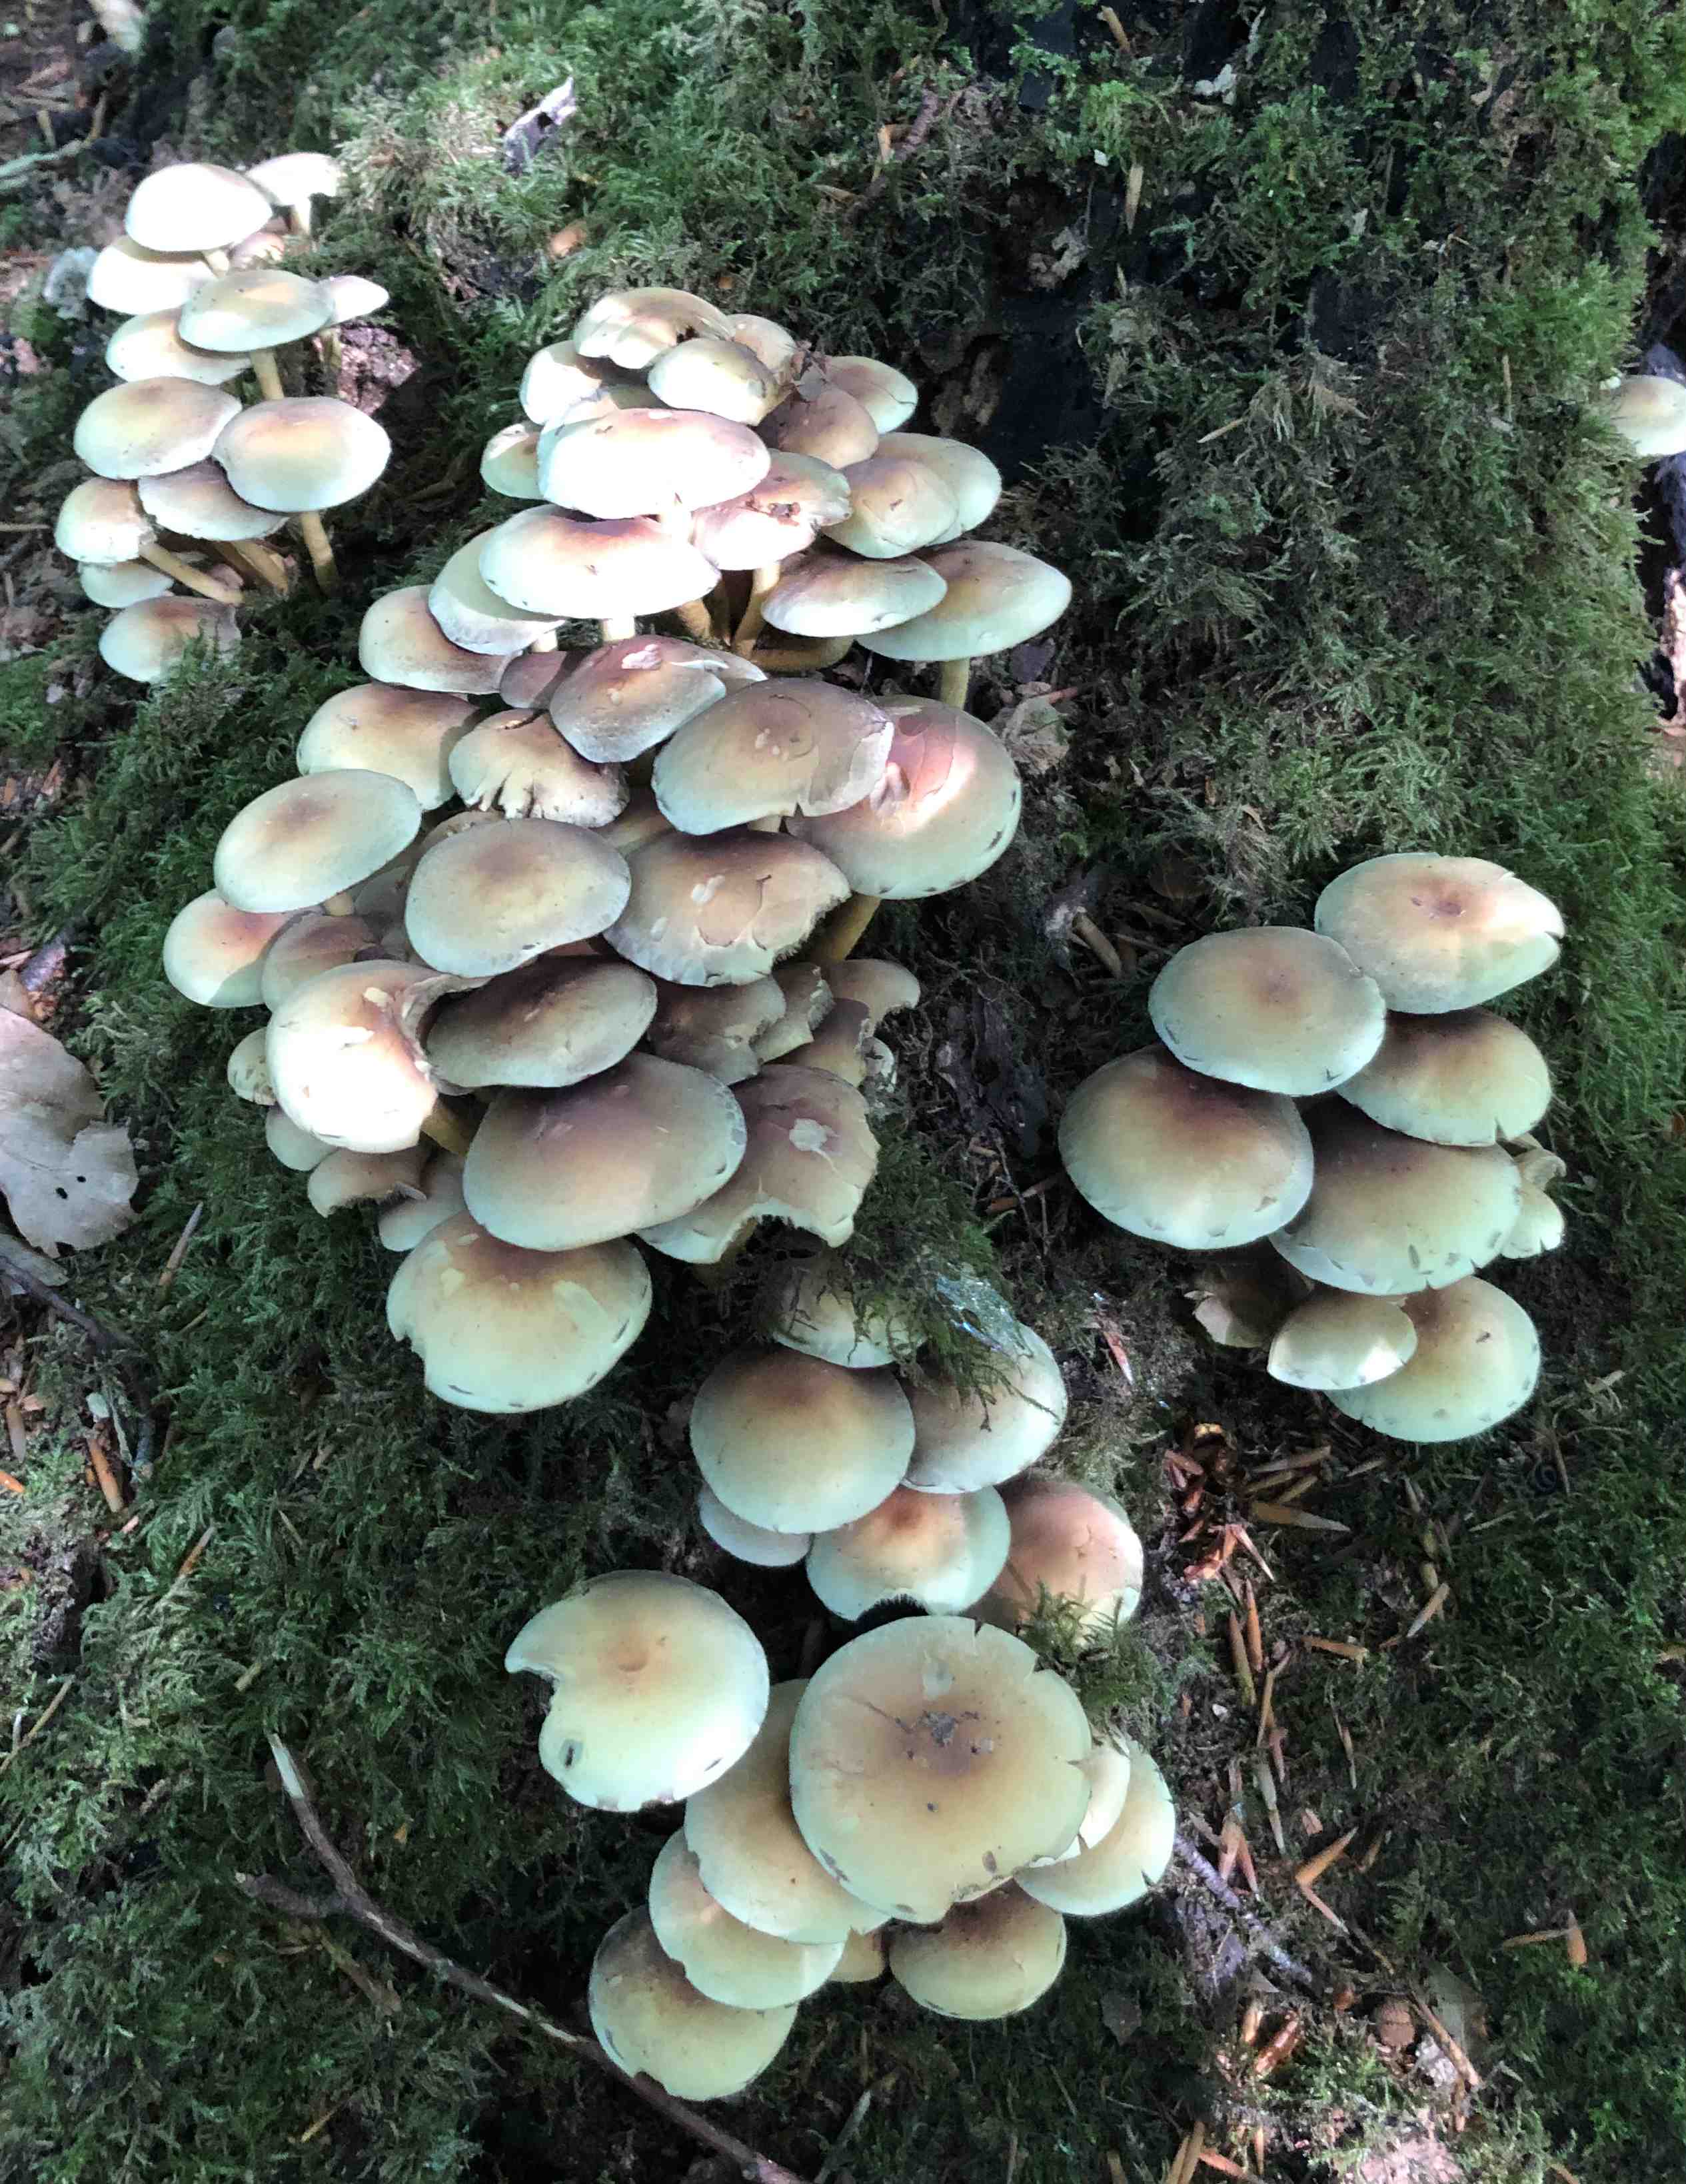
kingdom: Fungi
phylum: Basidiomycota
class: Agaricomycetes
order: Agaricales
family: Strophariaceae
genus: Hypholoma
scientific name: Hypholoma fasciculare
